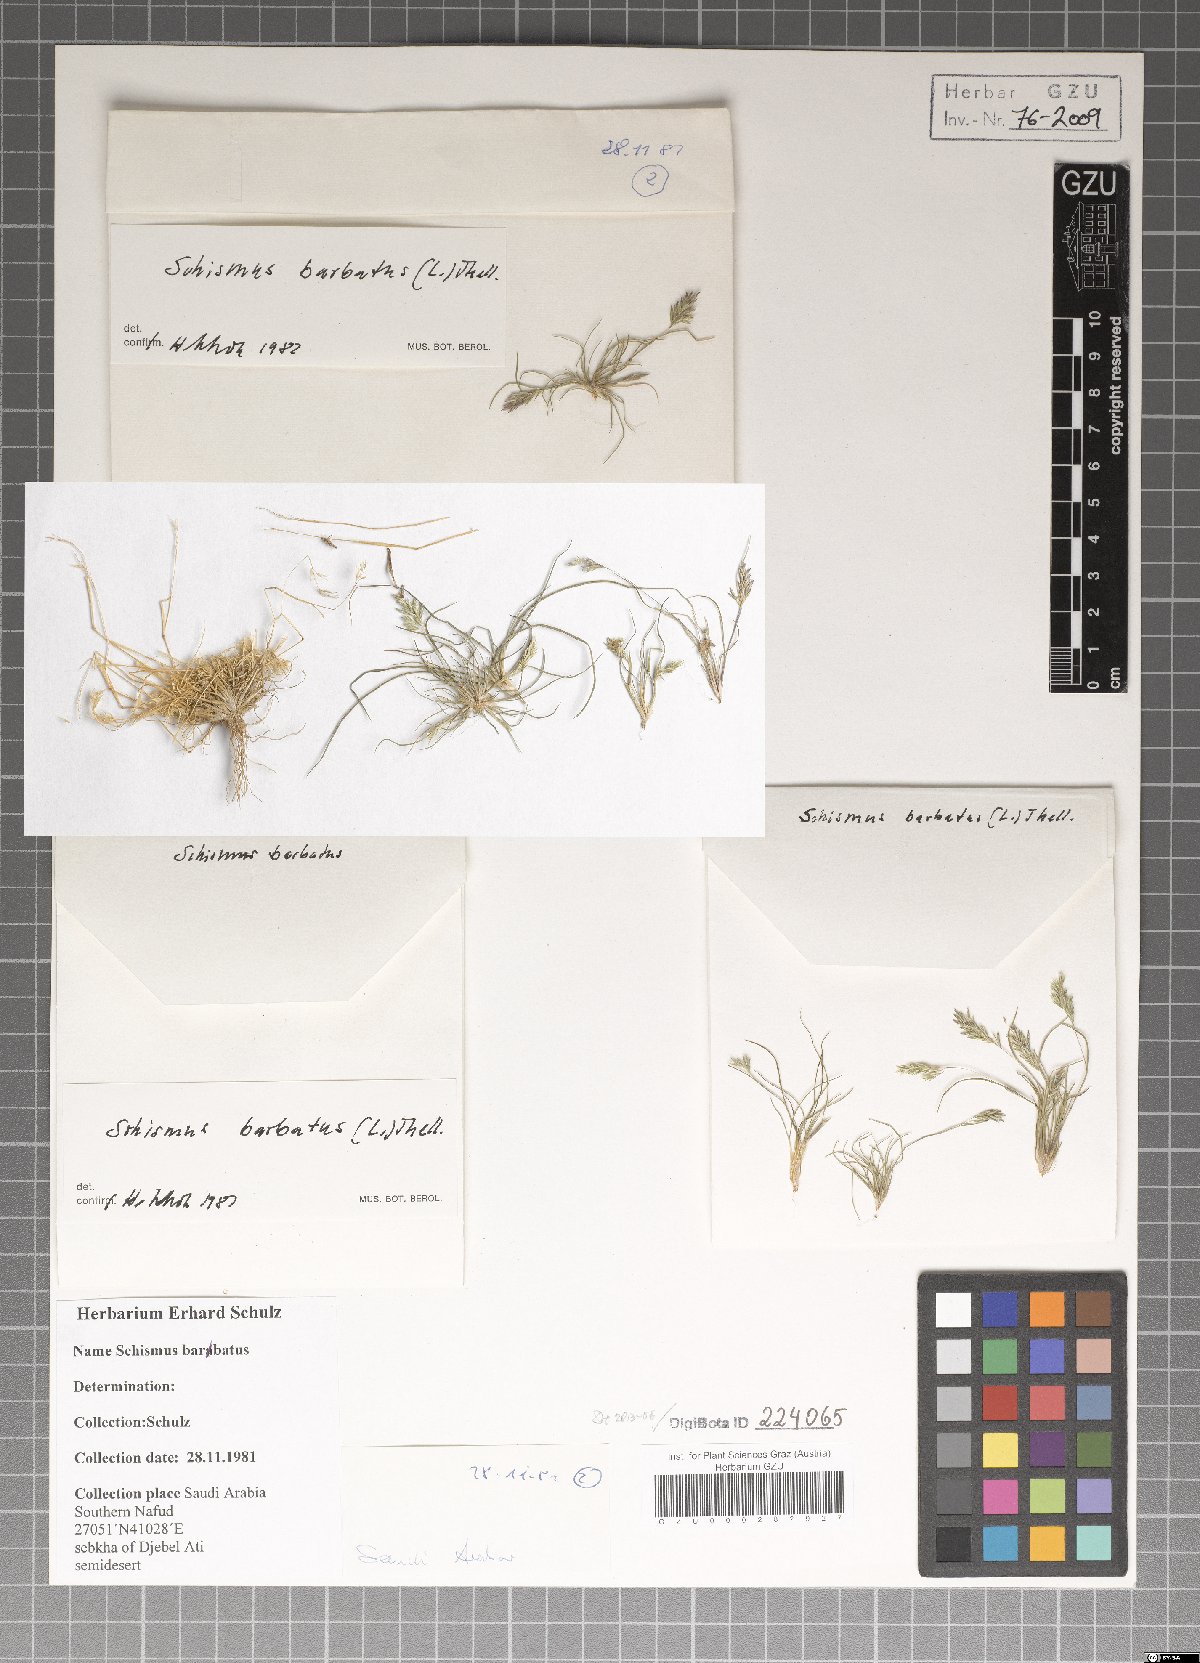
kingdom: Plantae
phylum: Tracheophyta
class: Liliopsida
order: Poales
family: Poaceae
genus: Schismus
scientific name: Schismus barbatus
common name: Kelch-grass
